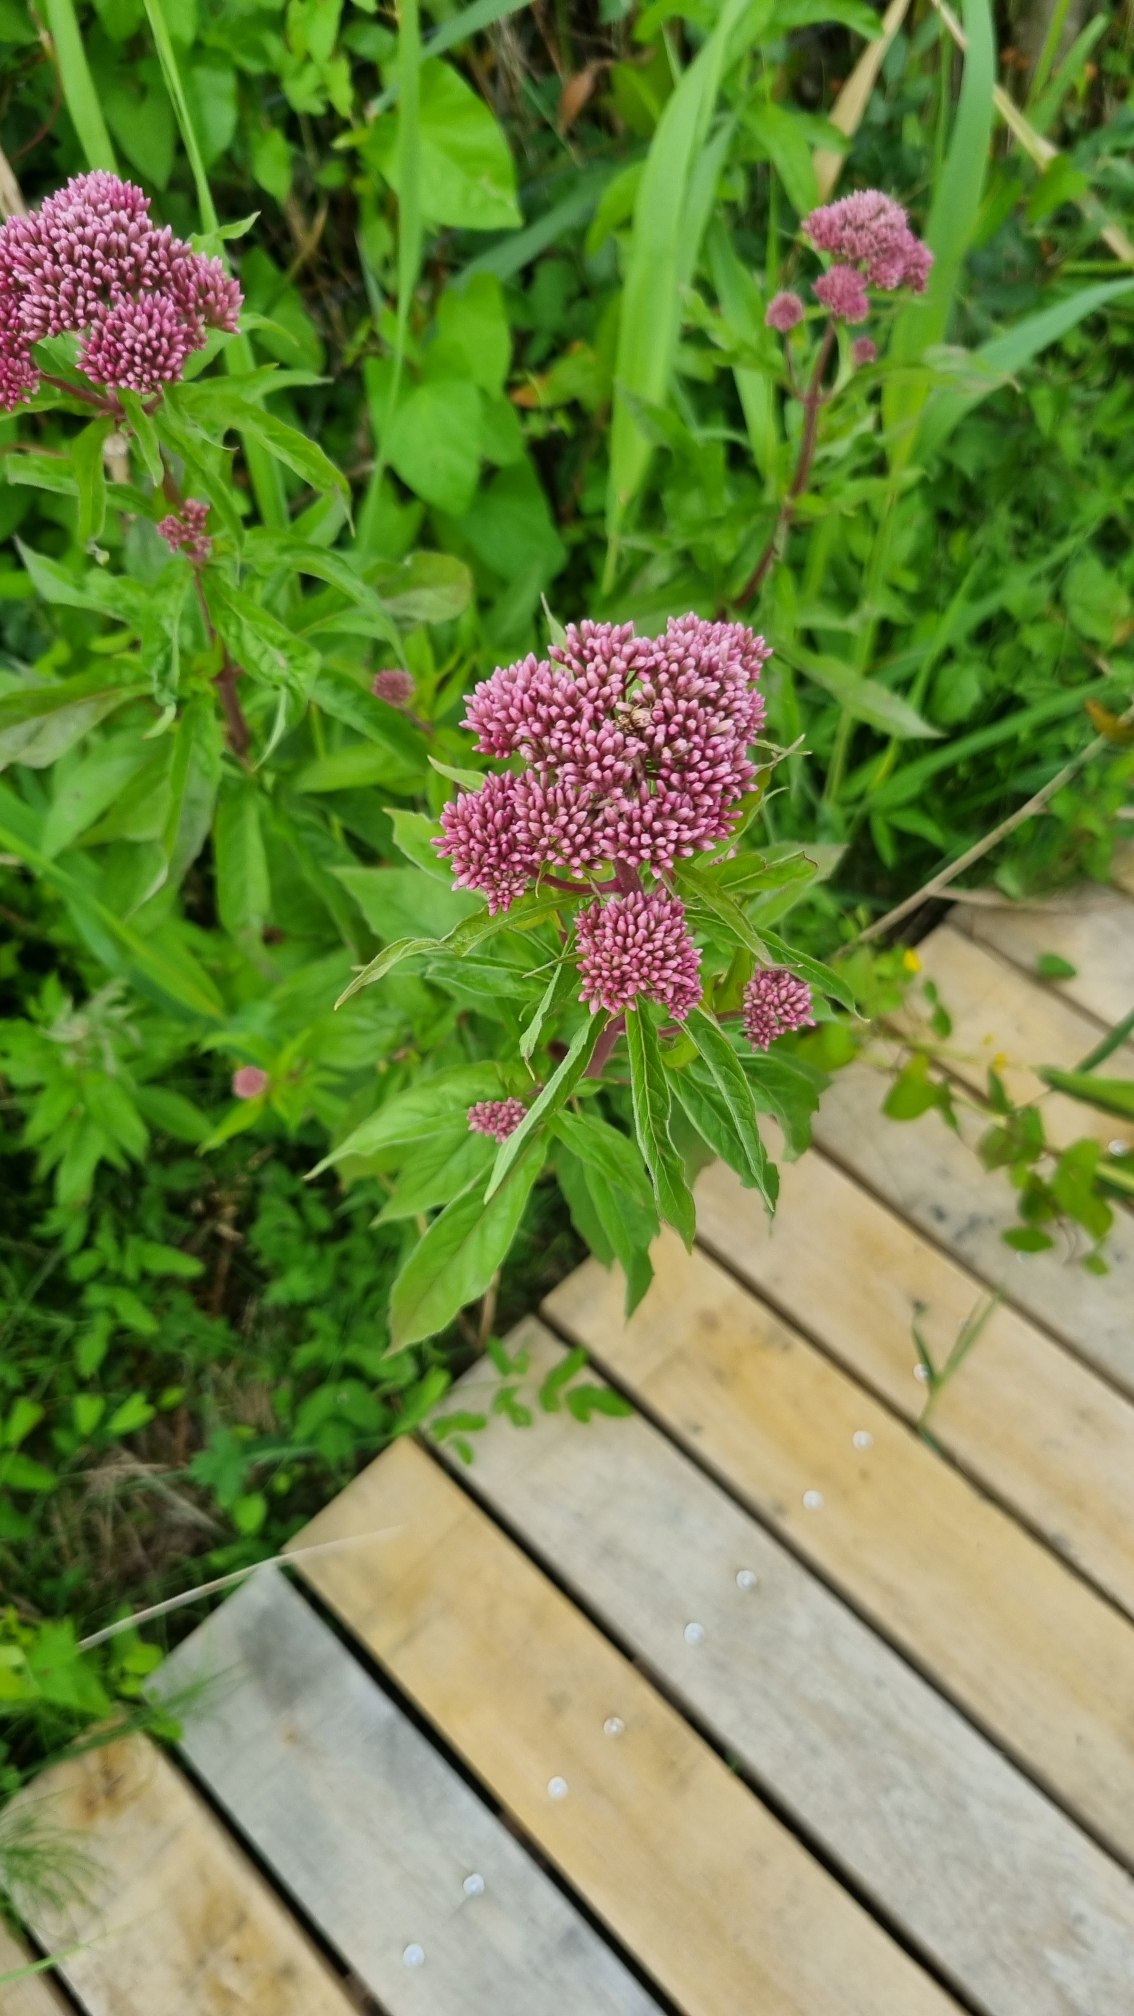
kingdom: Plantae
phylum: Tracheophyta
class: Magnoliopsida
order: Asterales
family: Asteraceae
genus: Eupatorium
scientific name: Eupatorium cannabinum
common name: Hjortetrøst
